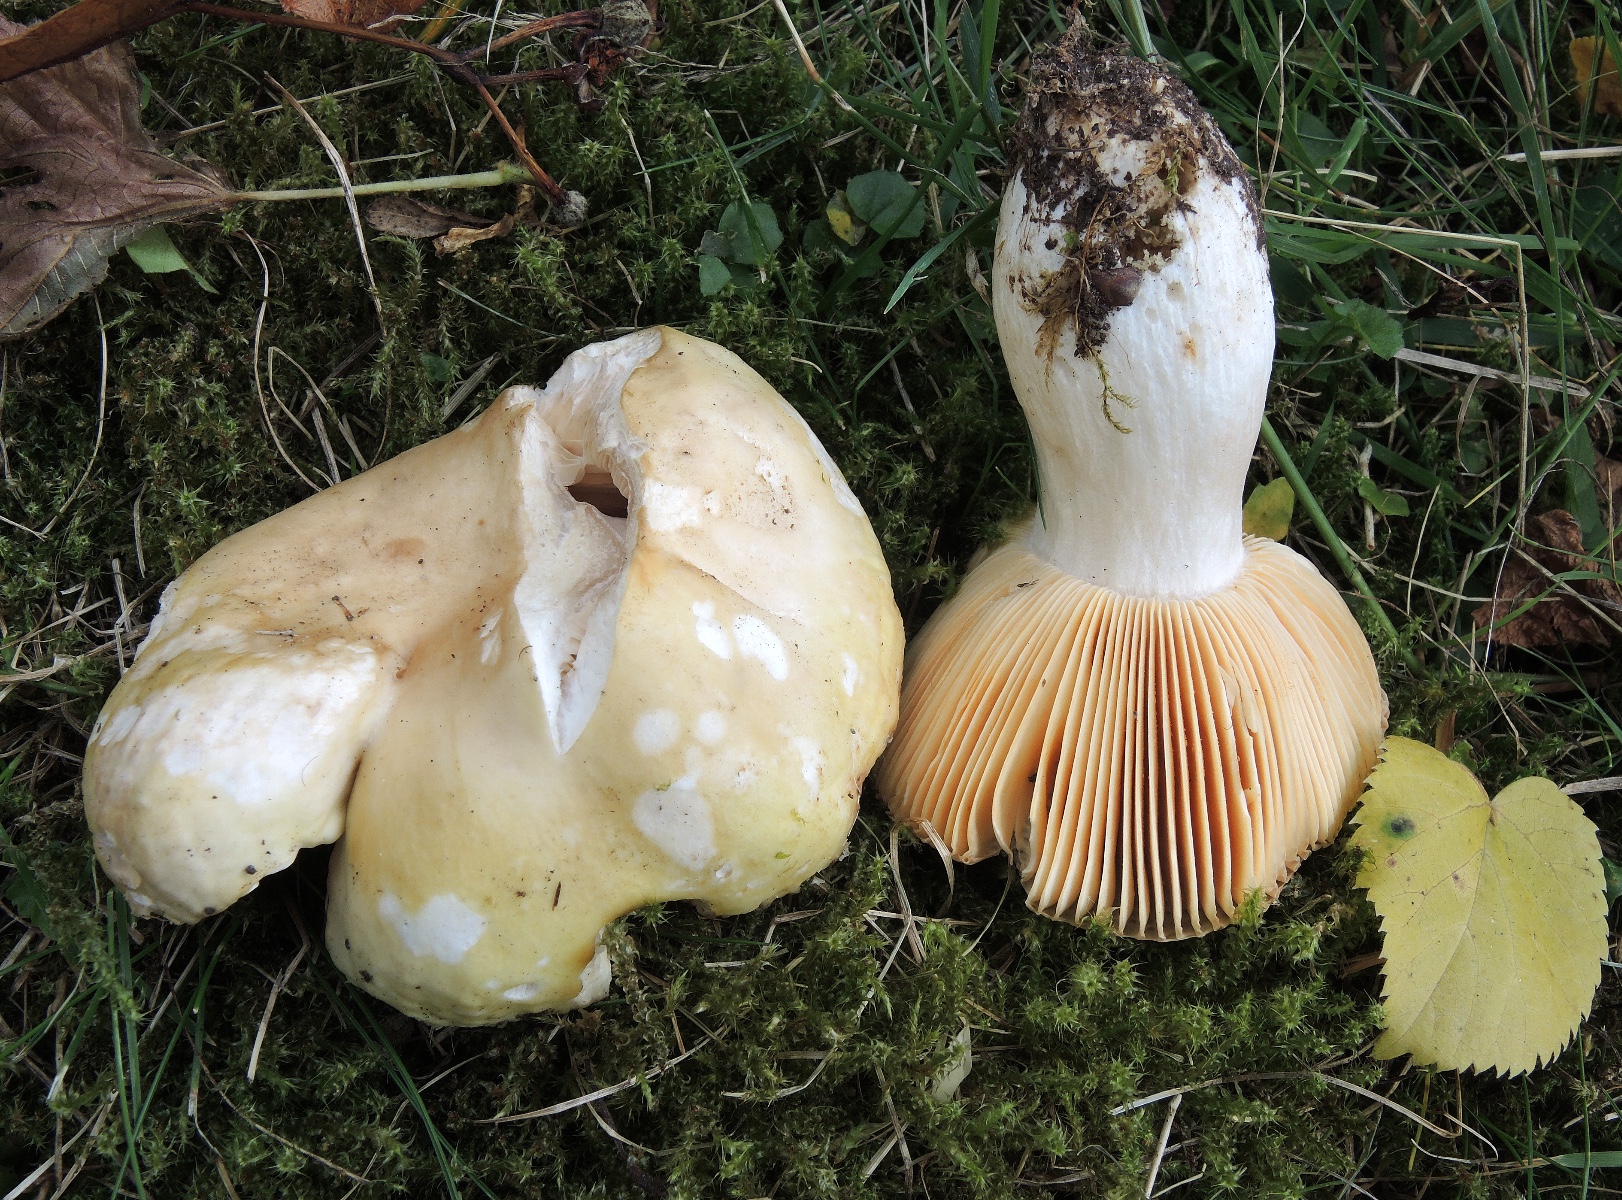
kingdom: Fungi
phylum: Basidiomycota
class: Agaricomycetes
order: Russulales
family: Russulaceae
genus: Russula
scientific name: Russula cuprea
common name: kanel-skørhat
